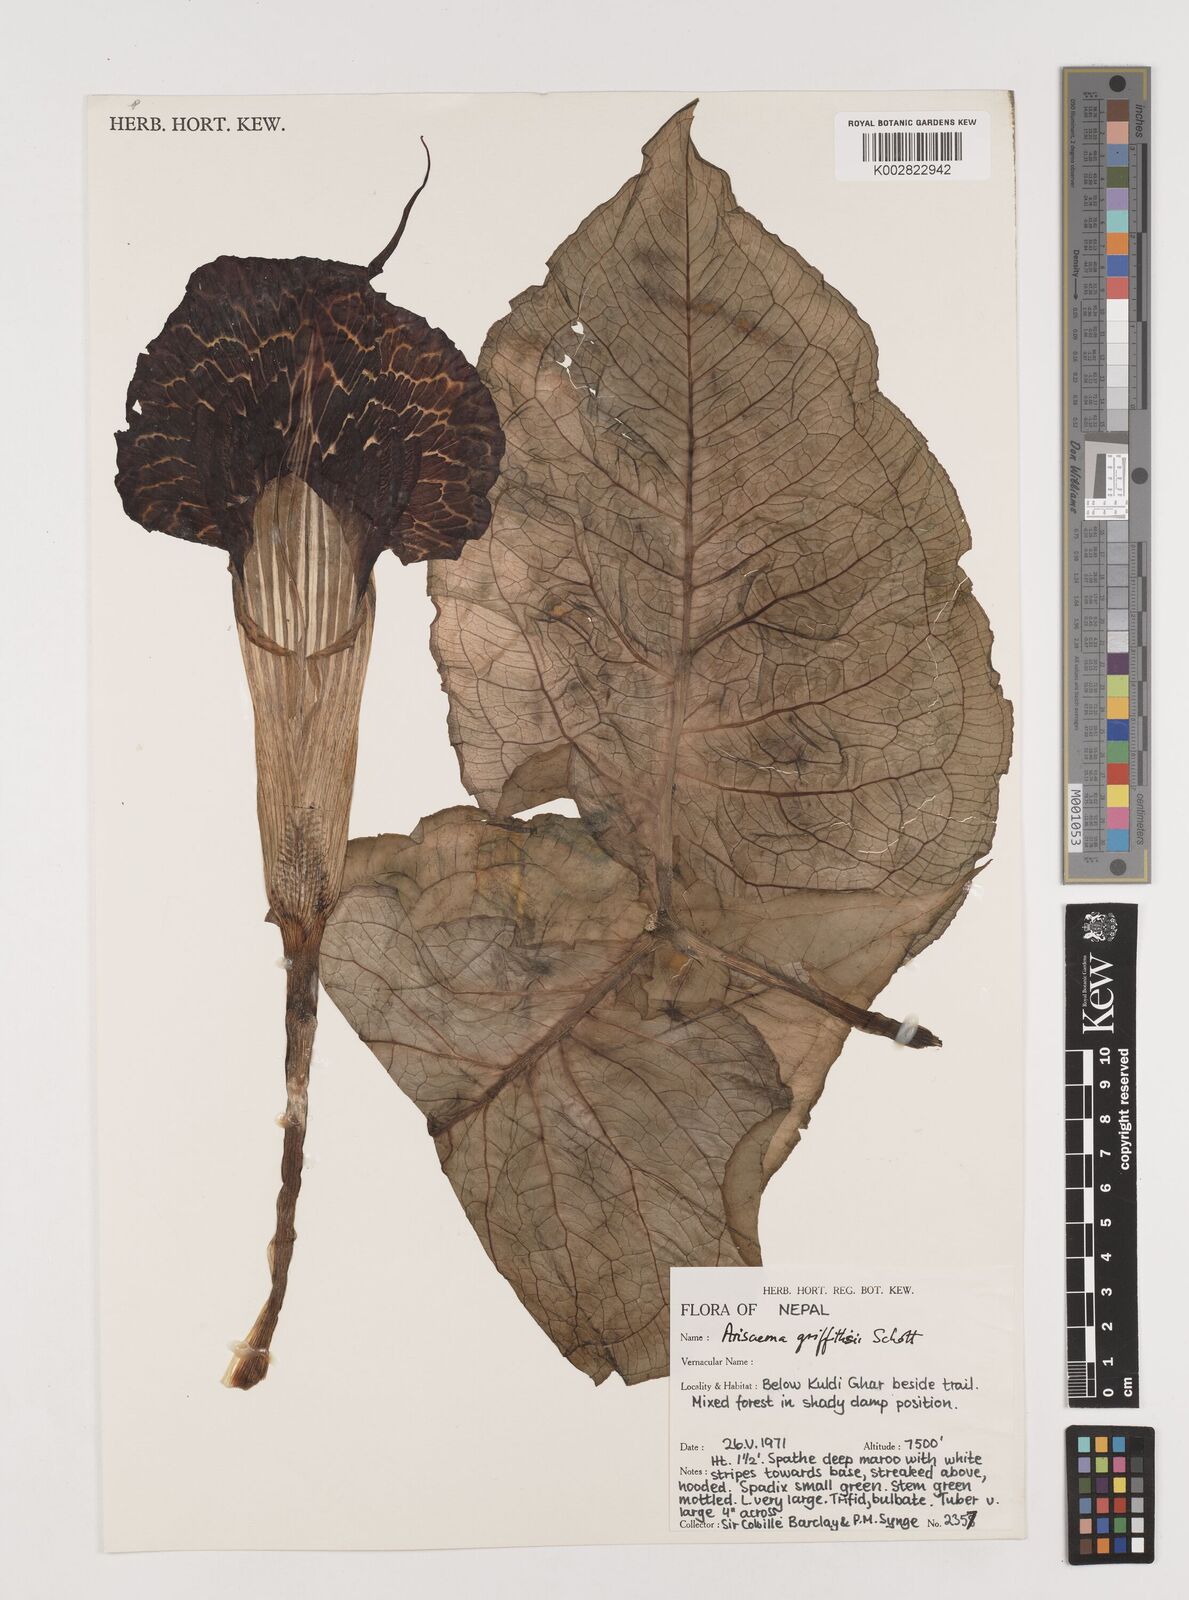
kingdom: Plantae
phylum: Tracheophyta
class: Liliopsida
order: Alismatales
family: Araceae
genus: Arisaema
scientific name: Arisaema griffithii
